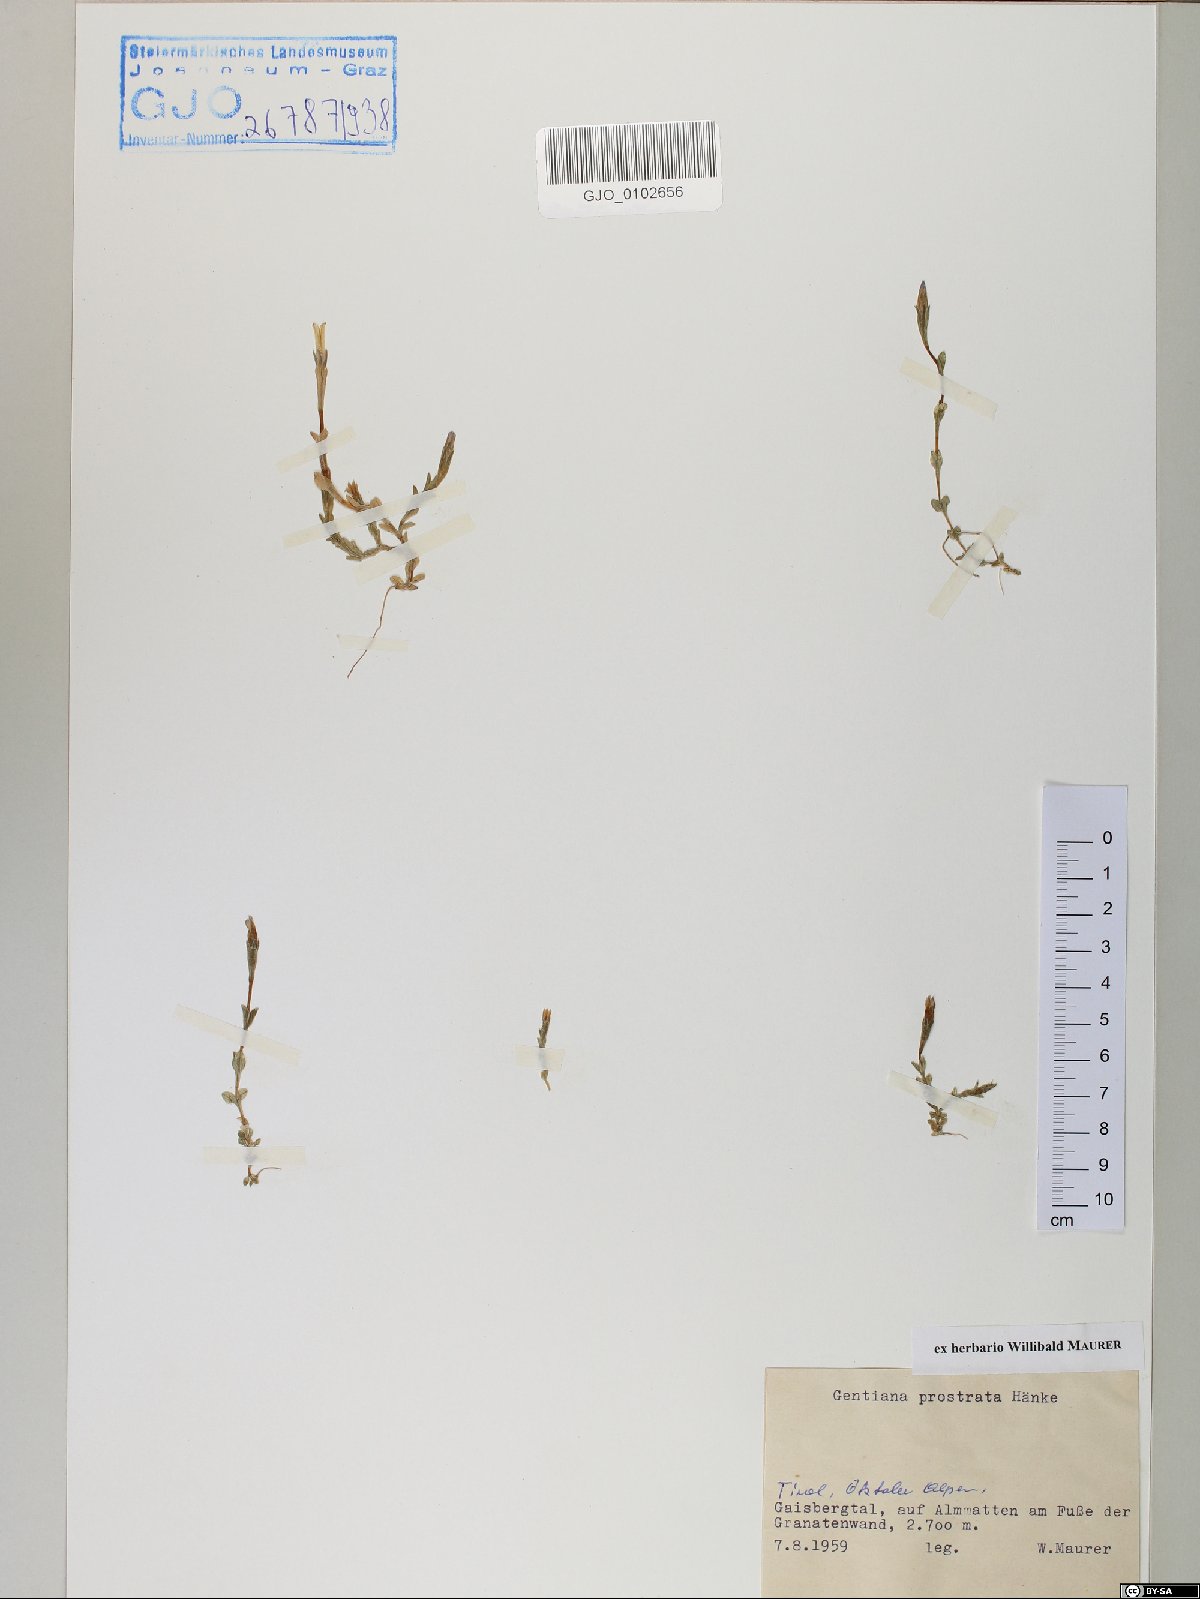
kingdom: Plantae
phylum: Tracheophyta
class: Magnoliopsida
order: Gentianales
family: Gentianaceae
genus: Gentiana
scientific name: Gentiana prostrata
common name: Moss gentian
